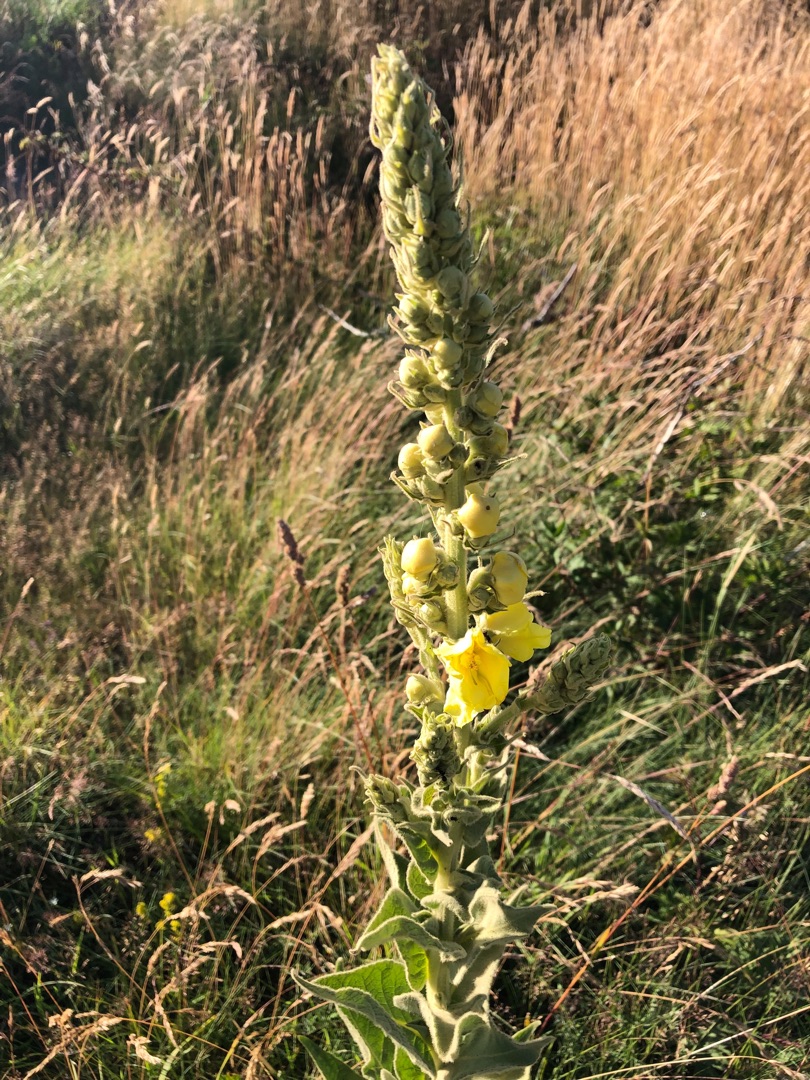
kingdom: Plantae
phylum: Tracheophyta
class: Magnoliopsida
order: Lamiales
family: Scrophulariaceae
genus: Verbascum
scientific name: Verbascum densiflorum
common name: Uldbladet kongelys
